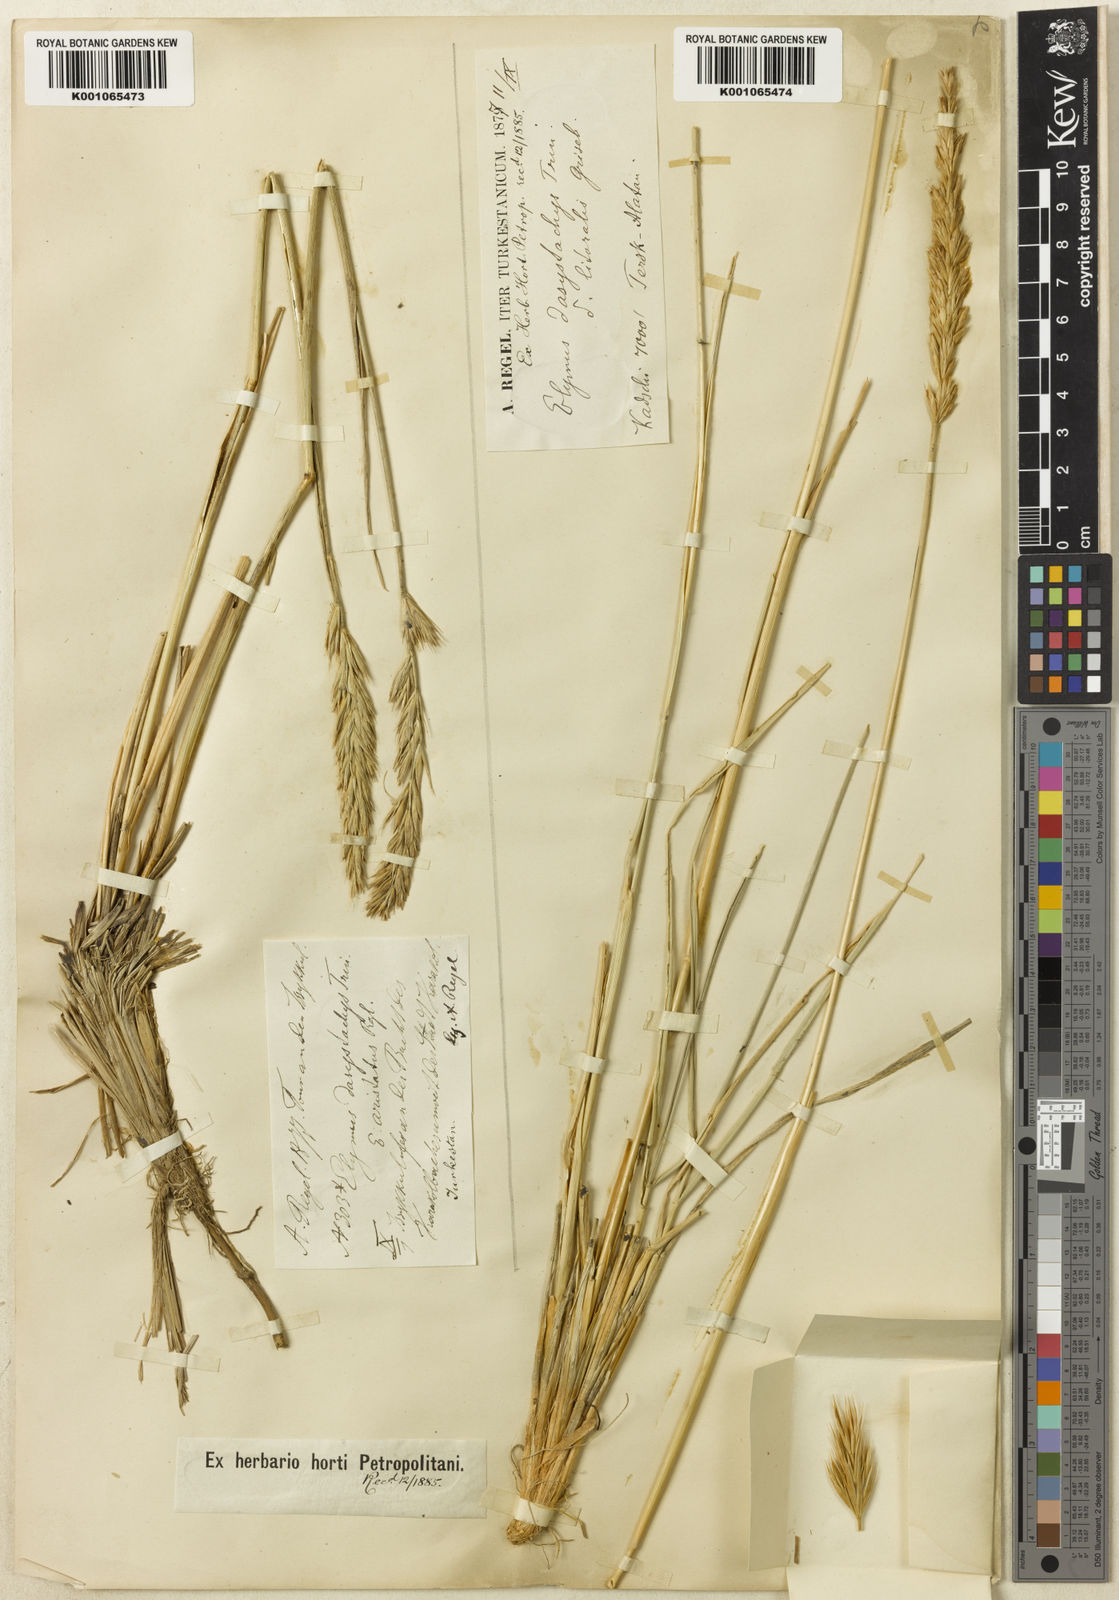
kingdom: Plantae
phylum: Tracheophyta
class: Liliopsida
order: Poales
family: Poaceae
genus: Leymus
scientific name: Leymus secalinus
